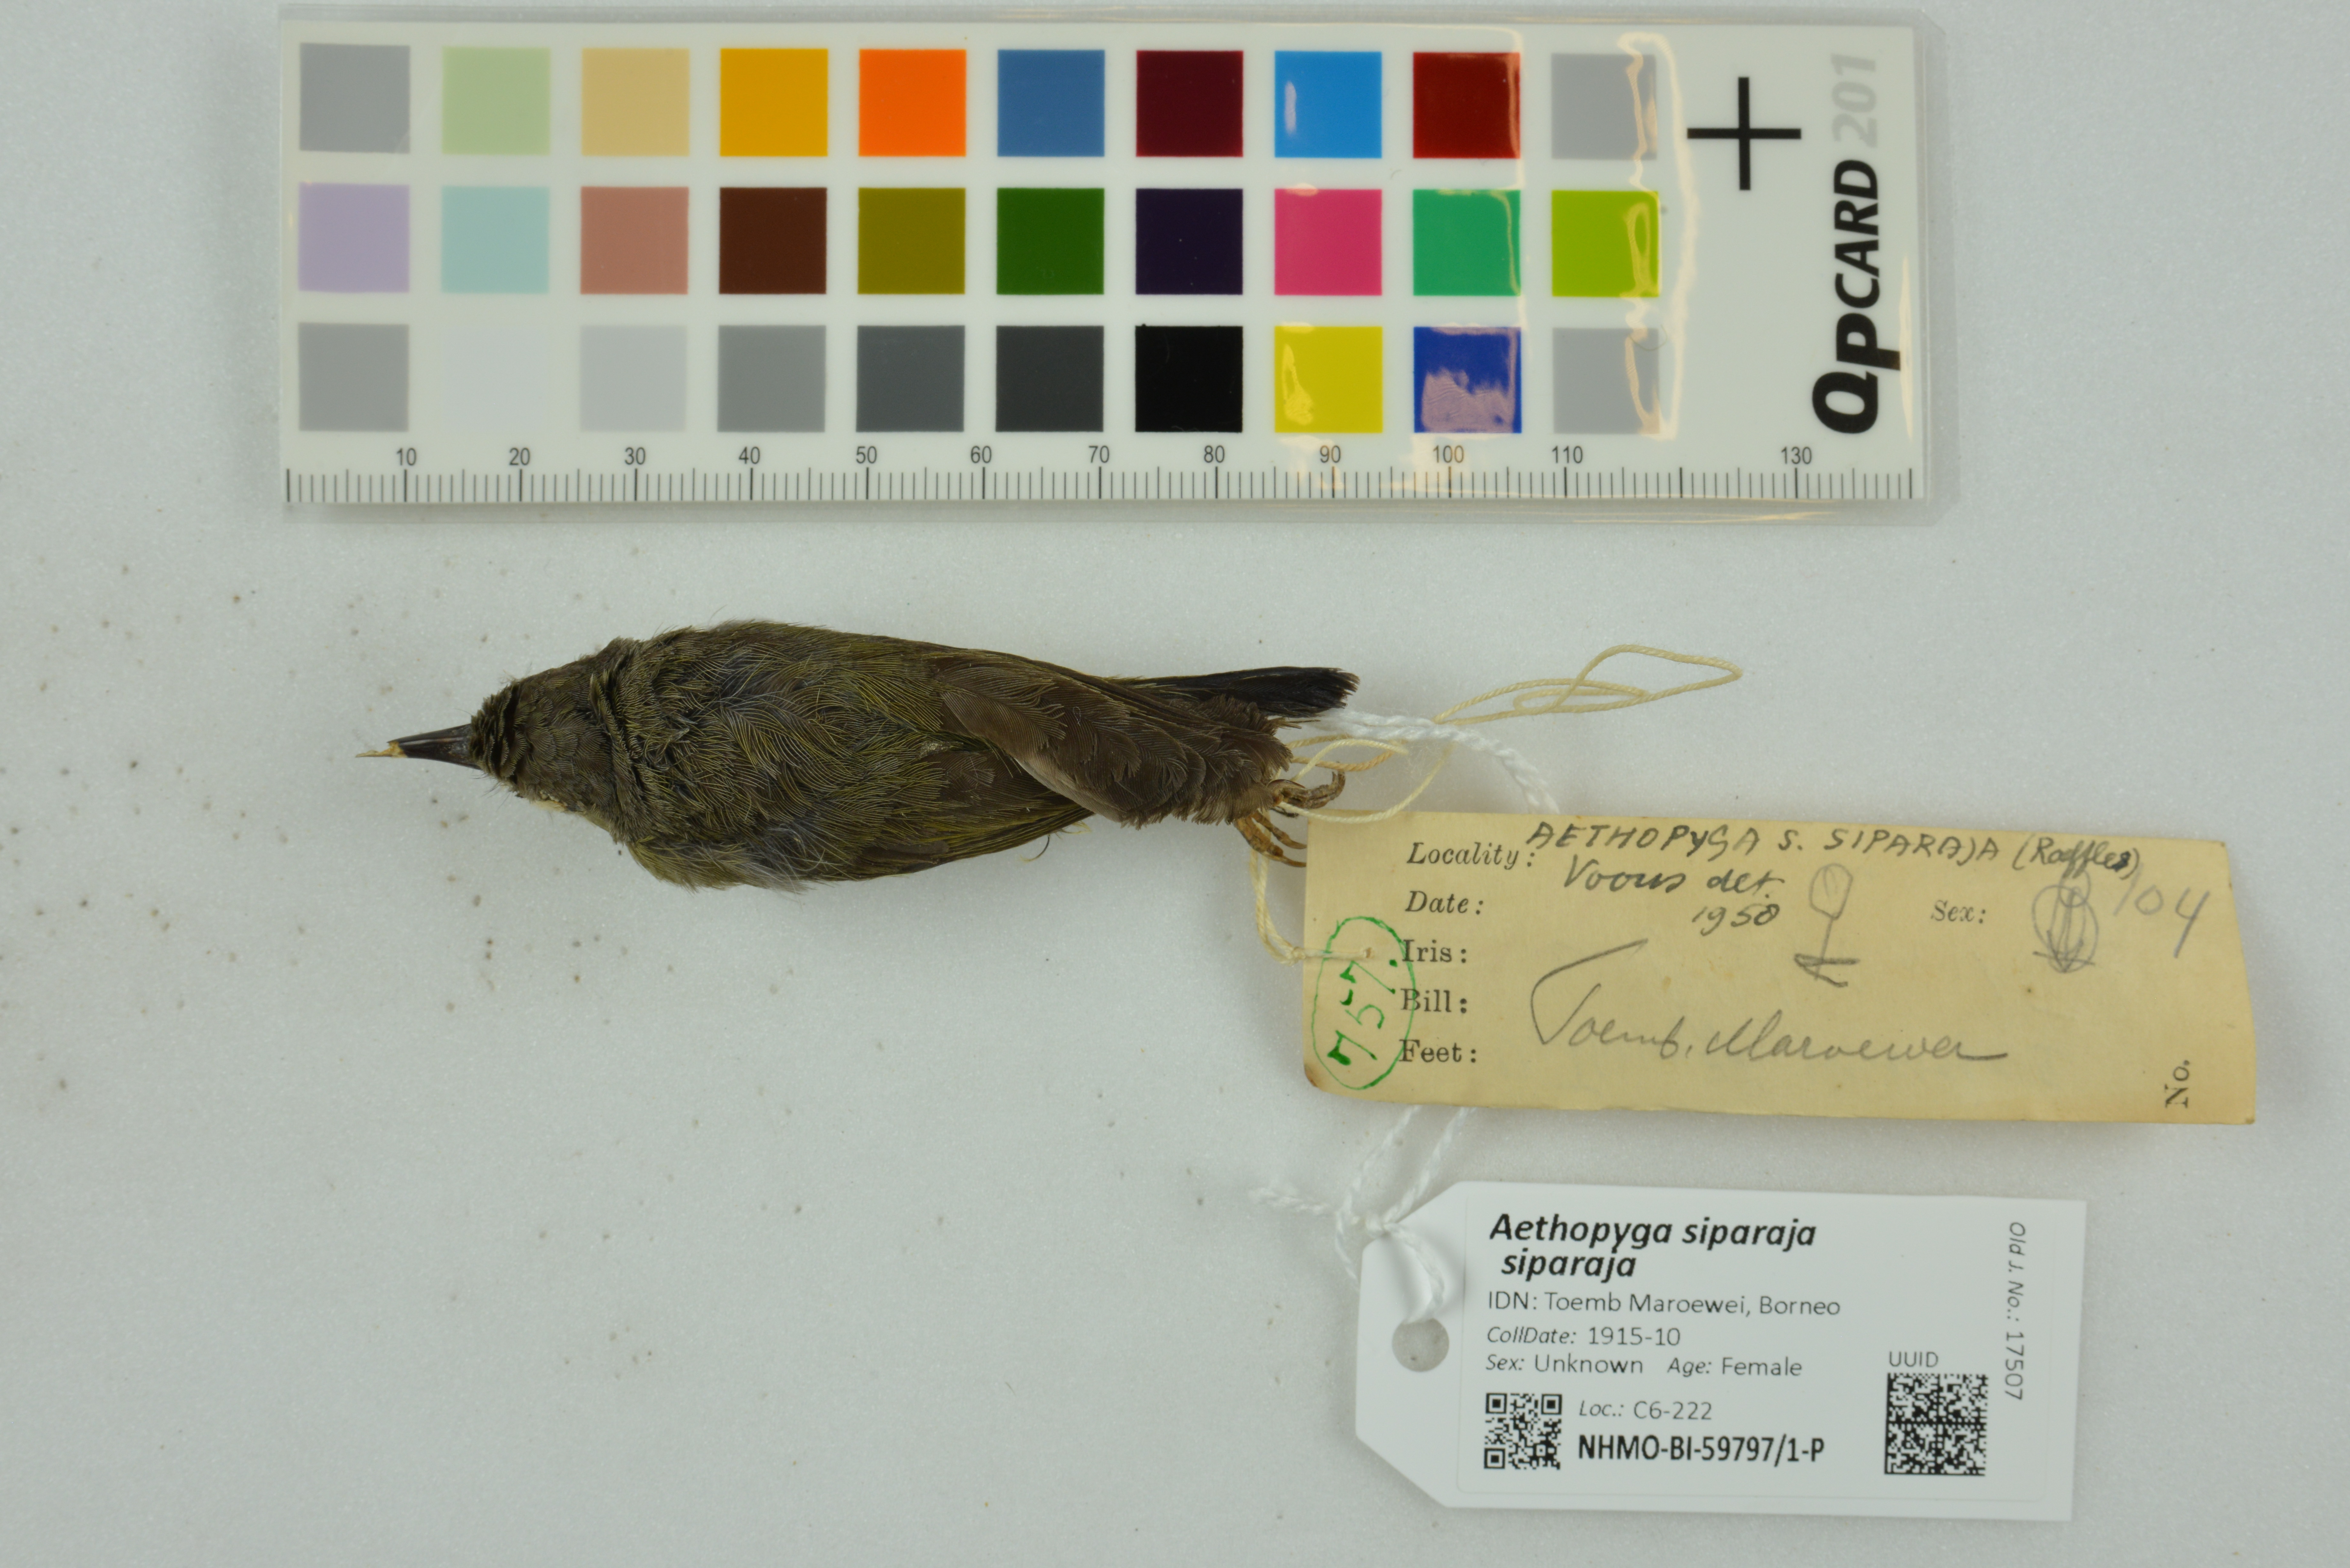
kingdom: Animalia
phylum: Chordata
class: Aves
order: Passeriformes
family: Nectariniidae
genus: Aethopyga
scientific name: Aethopyga siparaja
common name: Crimson sunbird
